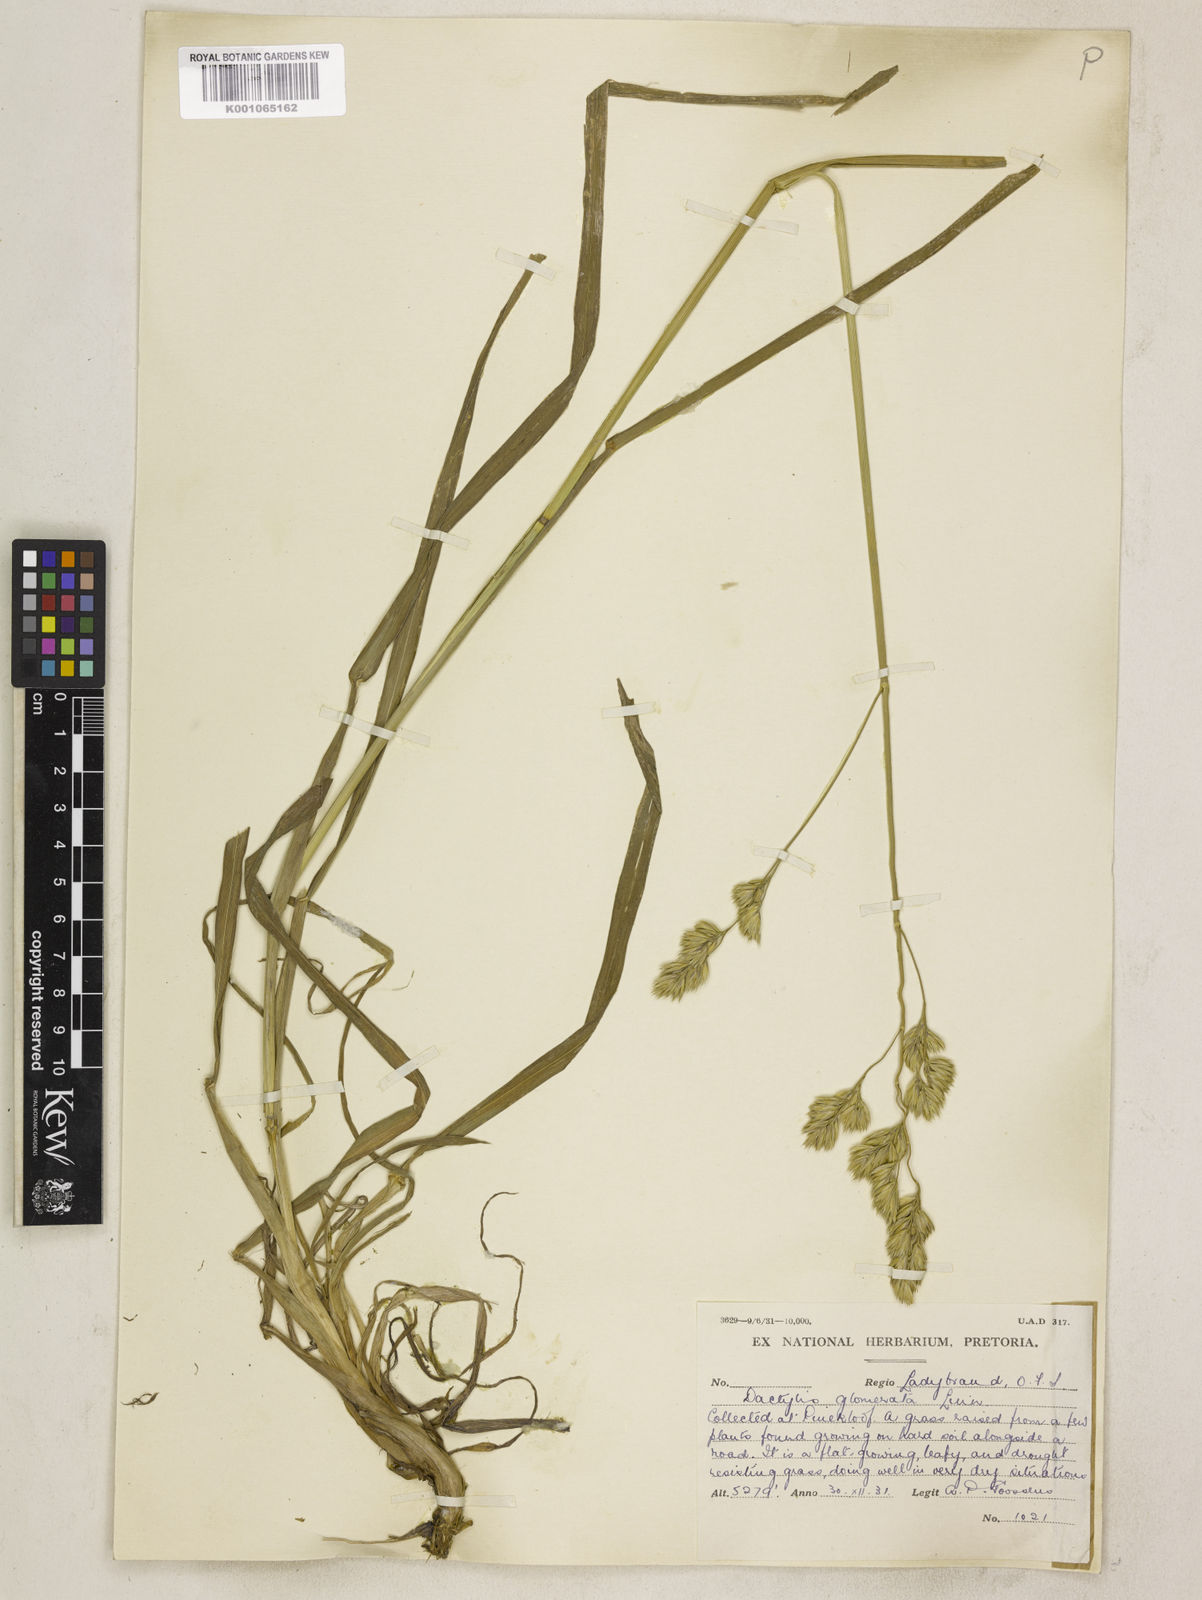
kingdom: Plantae
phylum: Tracheophyta
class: Liliopsida
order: Poales
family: Poaceae
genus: Dactylis
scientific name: Dactylis glomerata
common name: Orchardgrass
